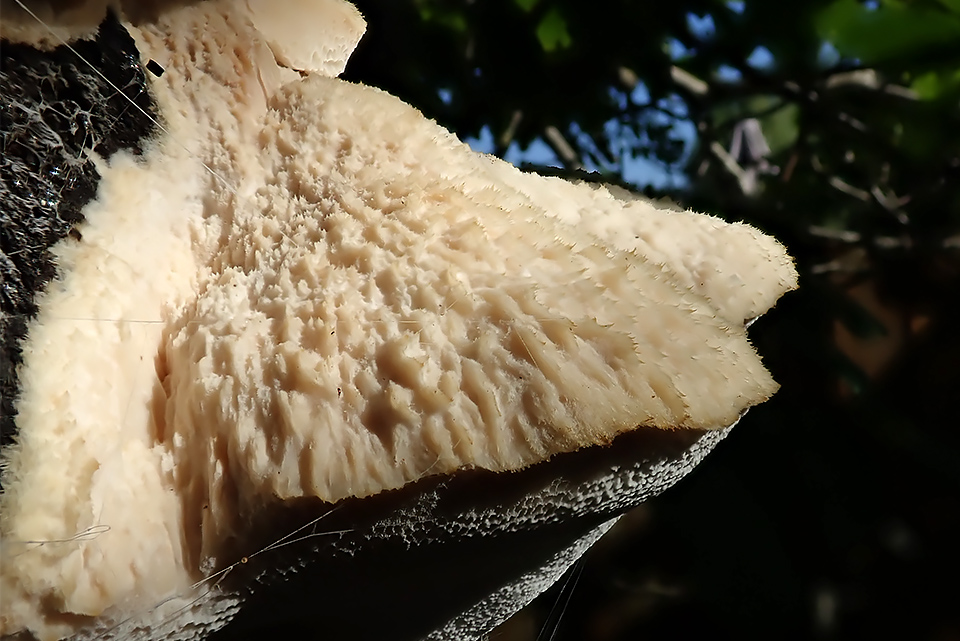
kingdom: Fungi
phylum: Basidiomycota
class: Agaricomycetes
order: Polyporales
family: Meruliaceae
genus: Pappia
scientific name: Pappia fissilis
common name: sej fedtporesvamp
